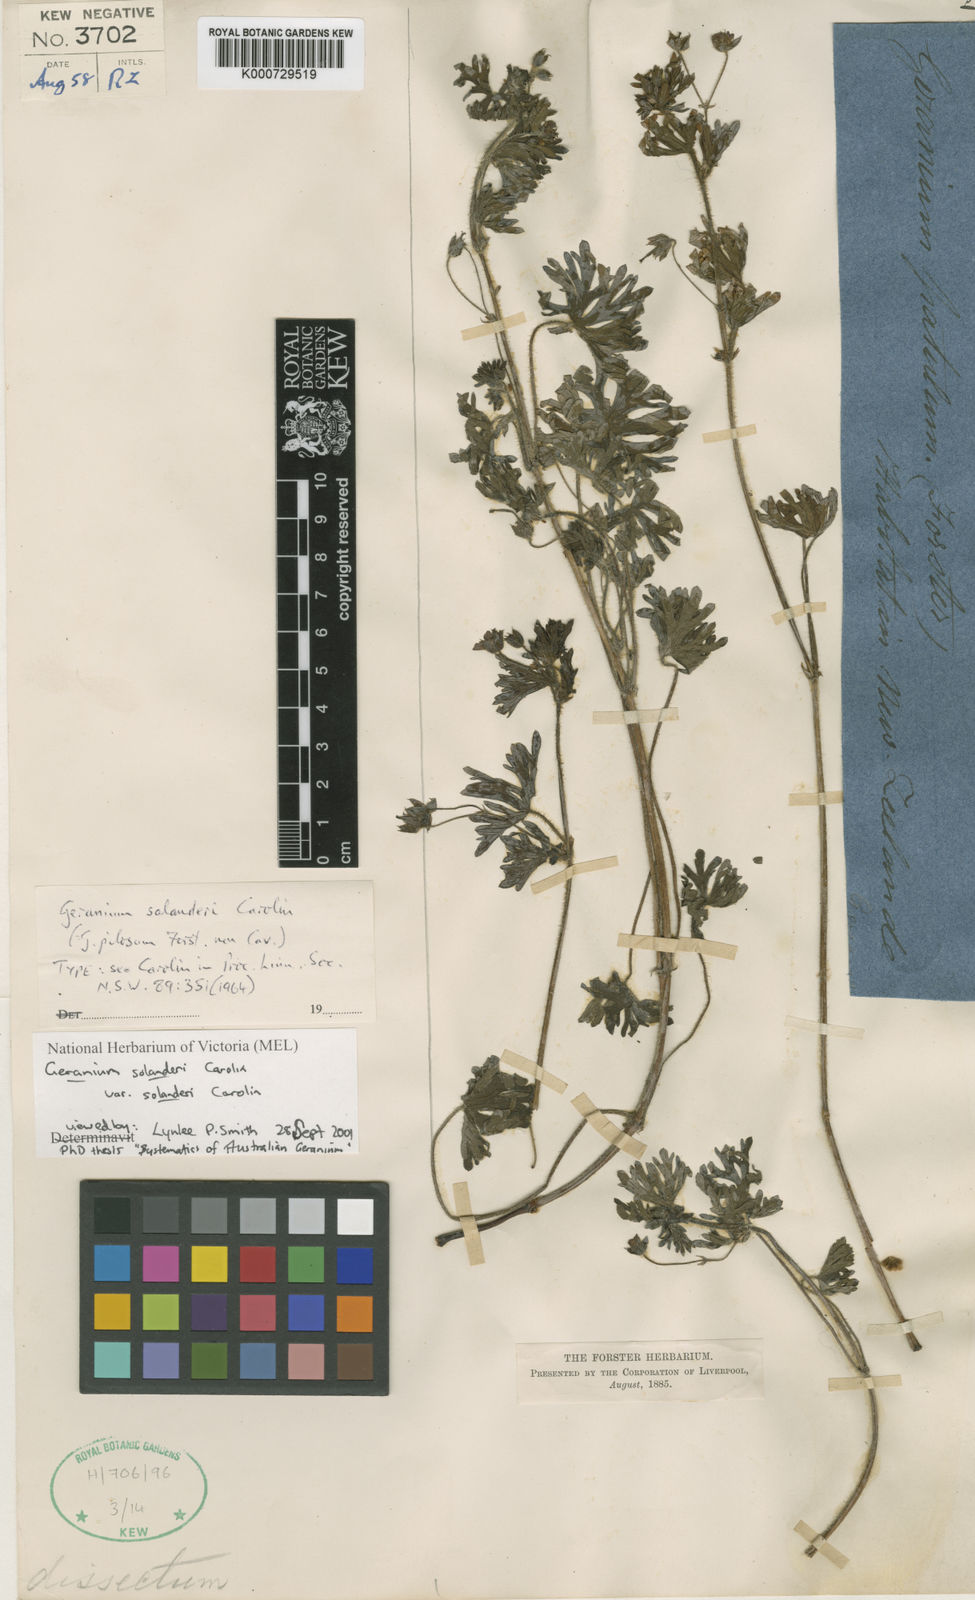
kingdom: Plantae
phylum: Tracheophyta
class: Magnoliopsida
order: Geraniales
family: Geraniaceae
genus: Geranium
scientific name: Geranium solanderi
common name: Solander's geranium
